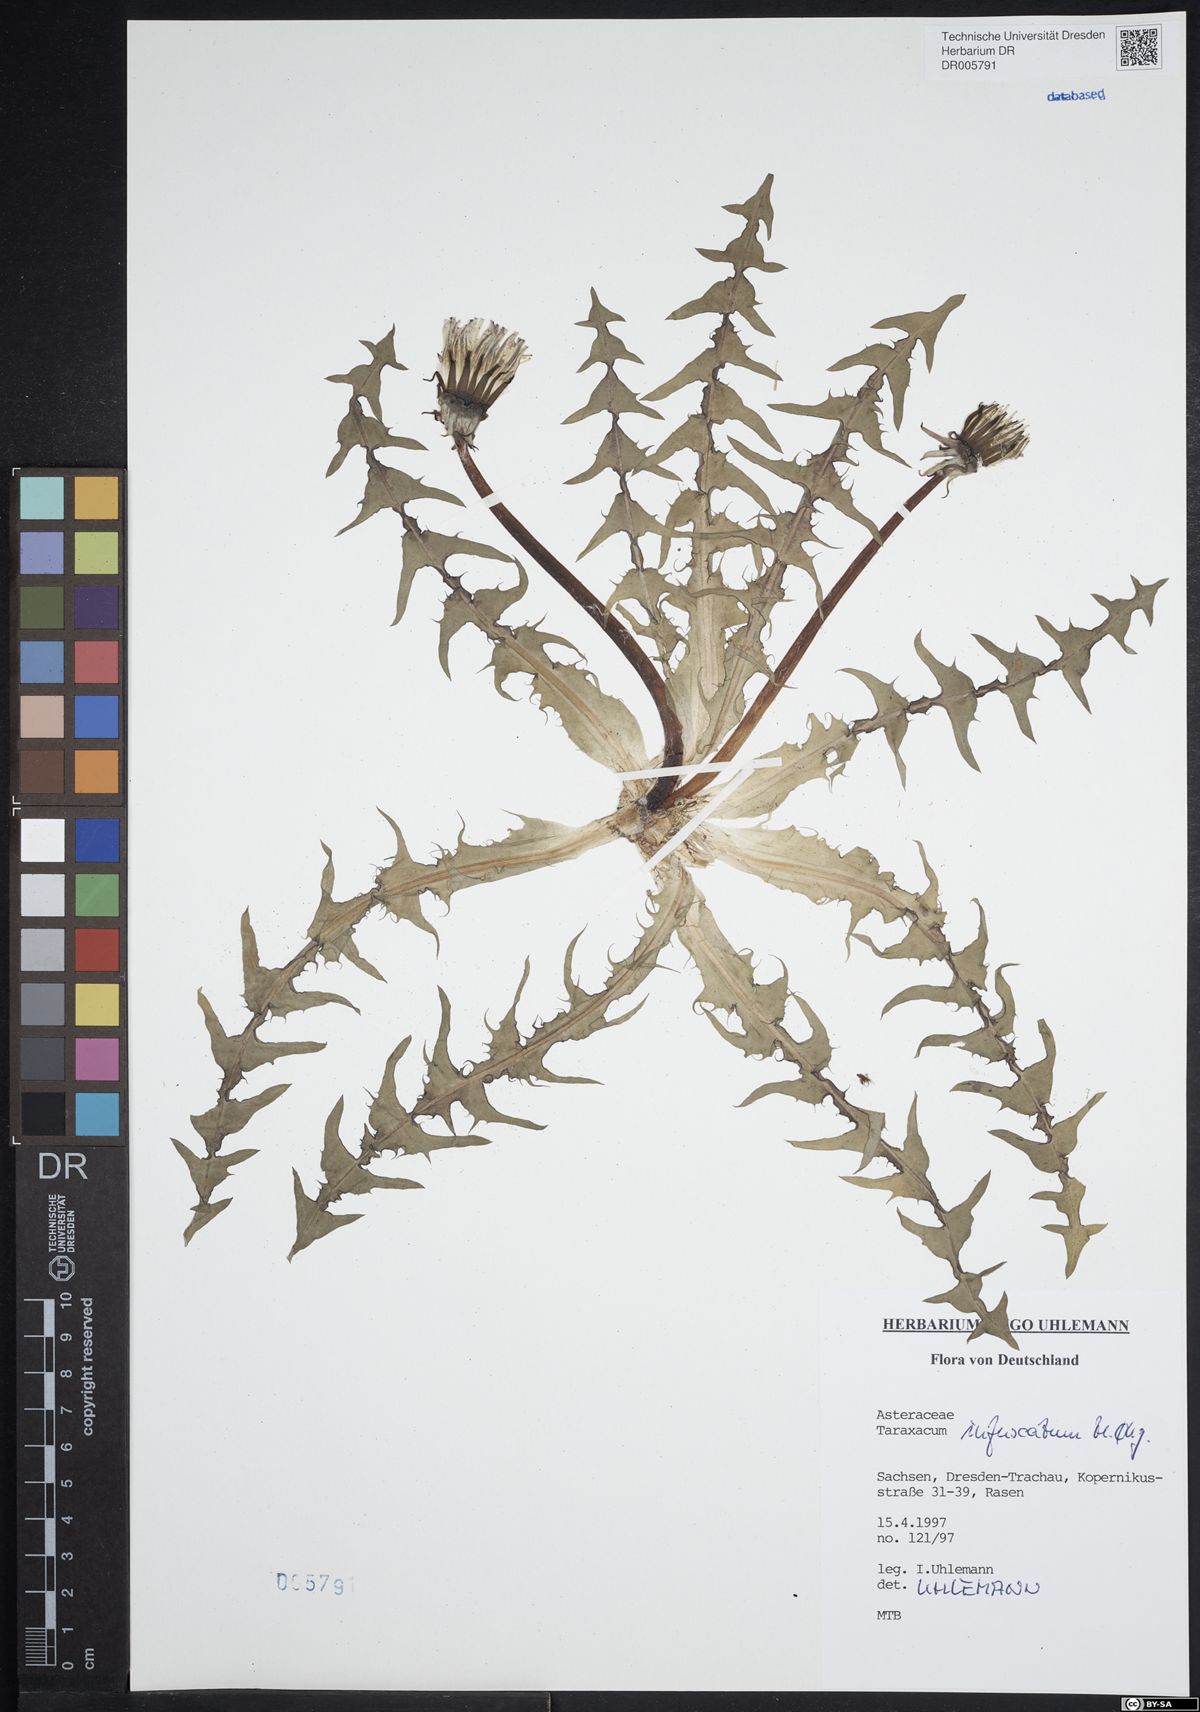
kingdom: Plantae
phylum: Tracheophyta
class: Magnoliopsida
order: Asterales
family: Asteraceae
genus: Taraxacum
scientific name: Taraxacum infuscatum
